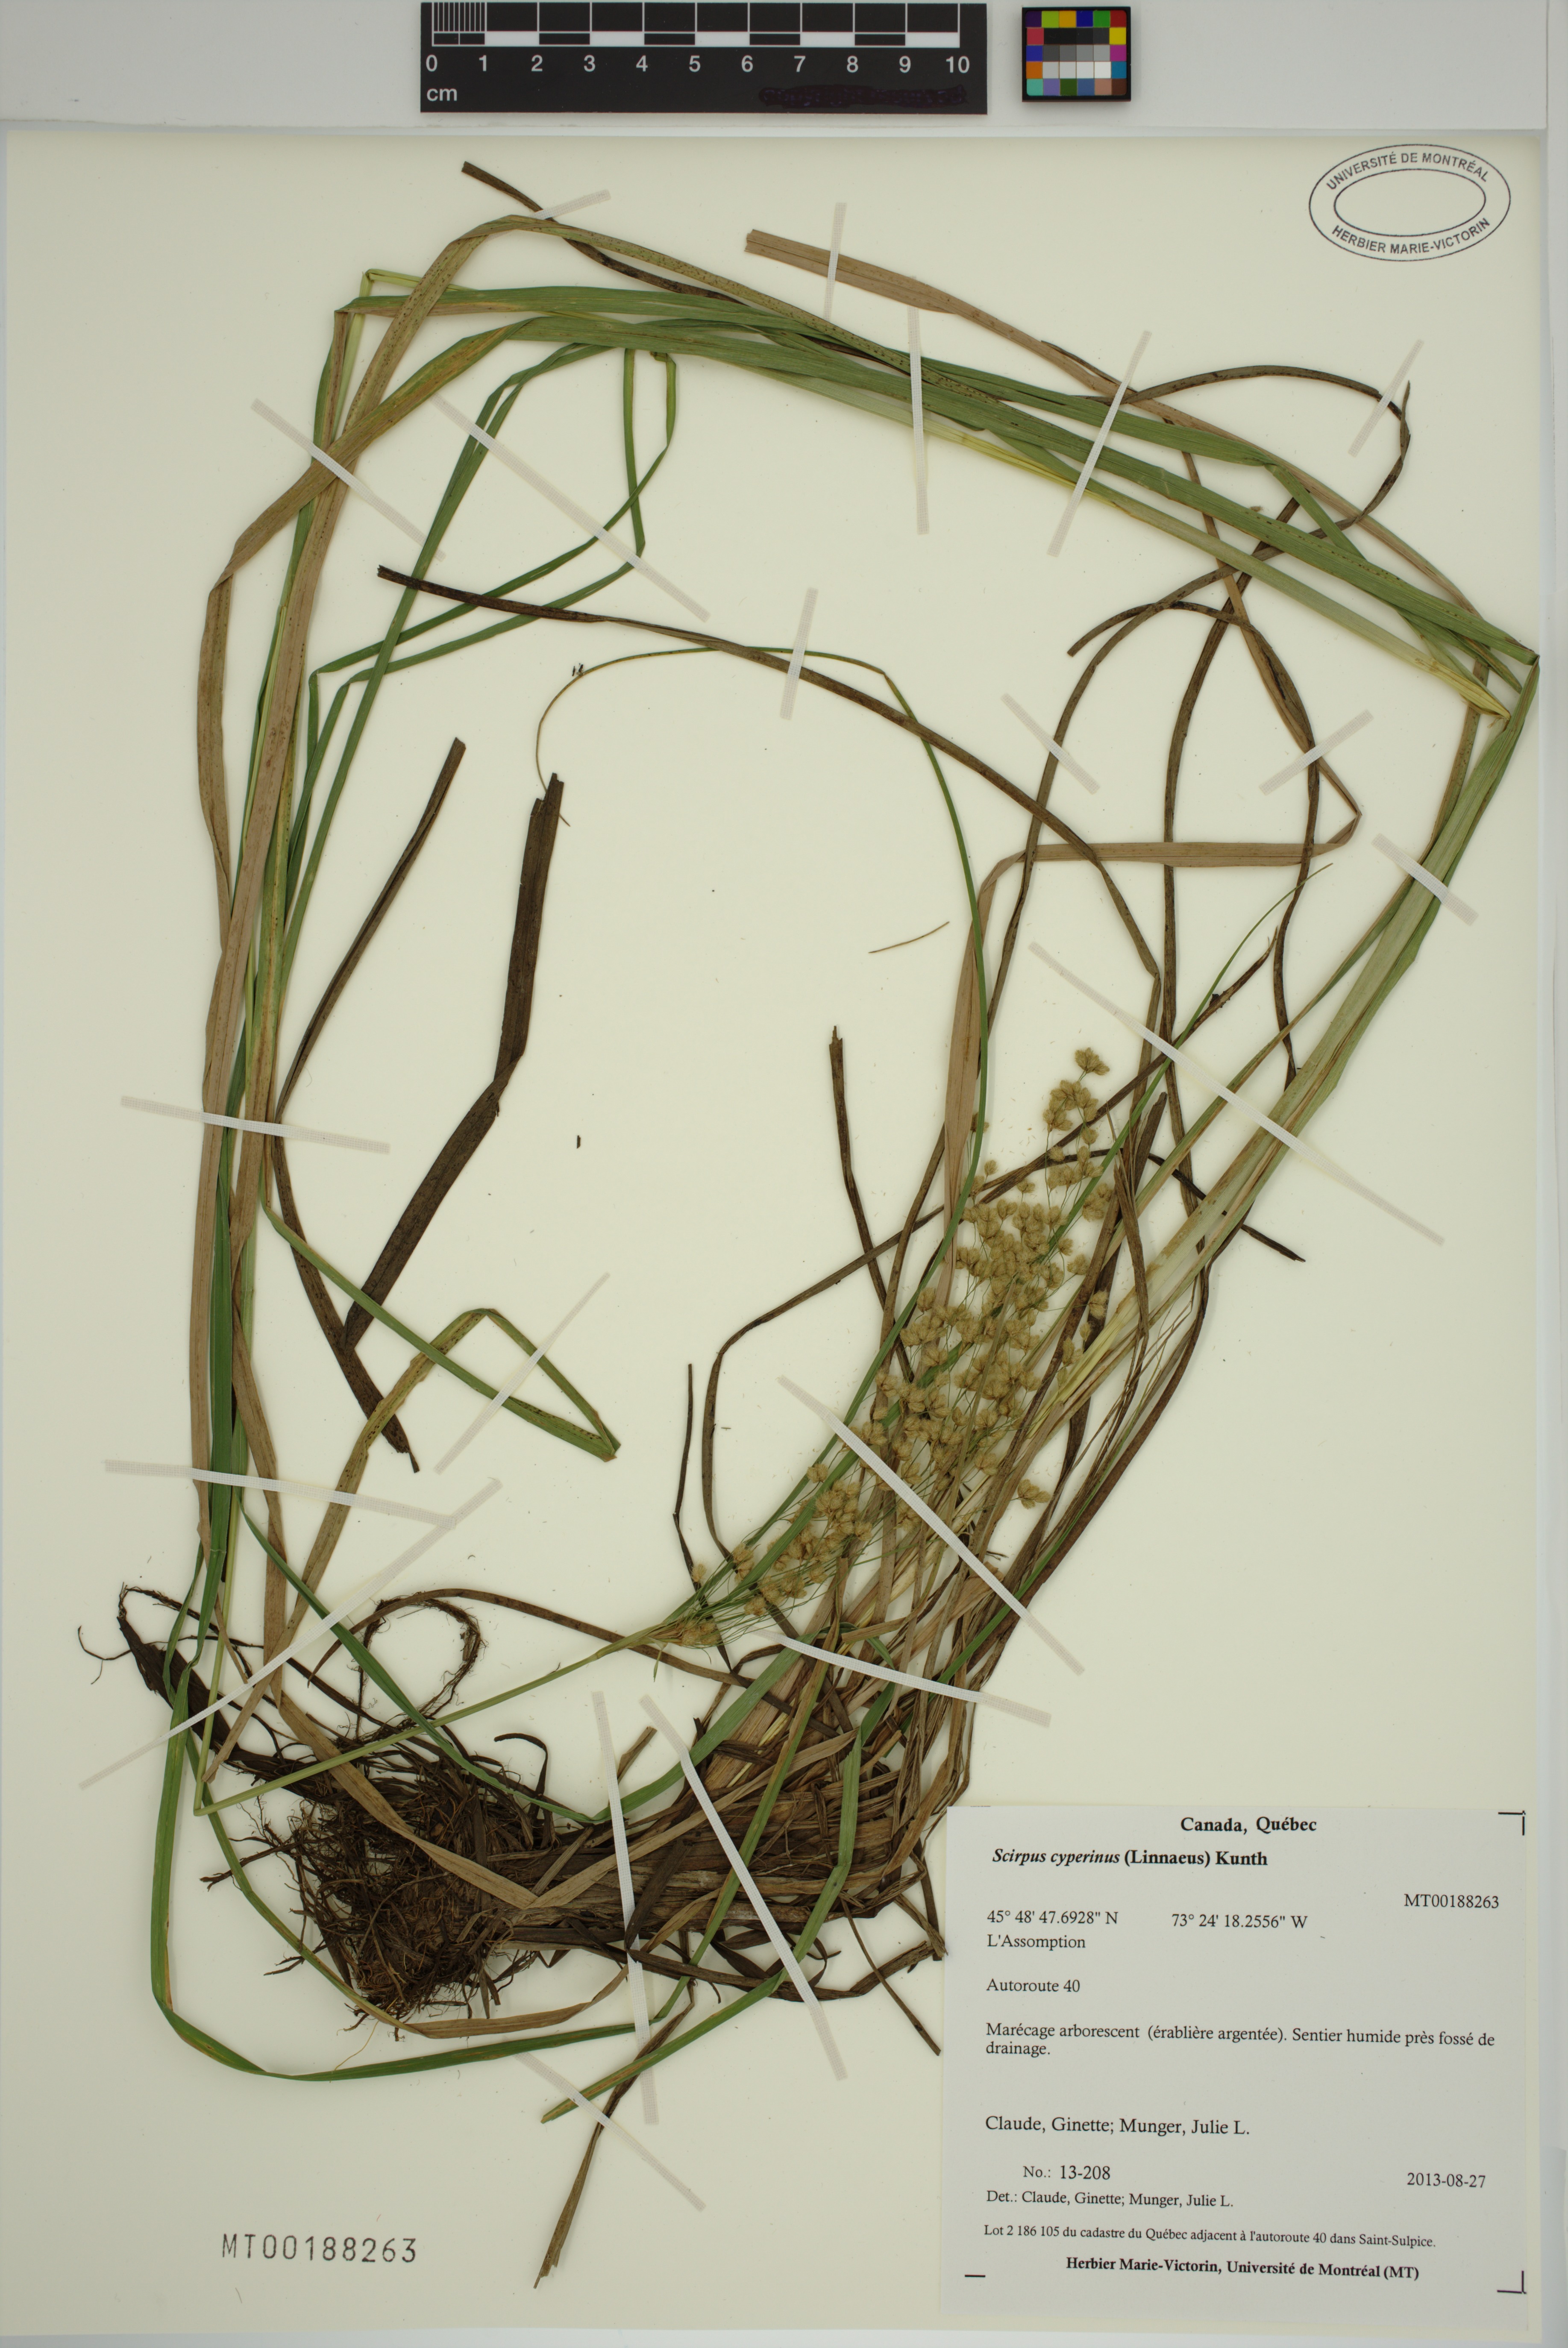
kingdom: Plantae
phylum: Tracheophyta
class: Liliopsida
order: Poales
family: Cyperaceae
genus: Scirpus
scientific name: Scirpus cyperinus
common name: Black-sheathed bulrush
